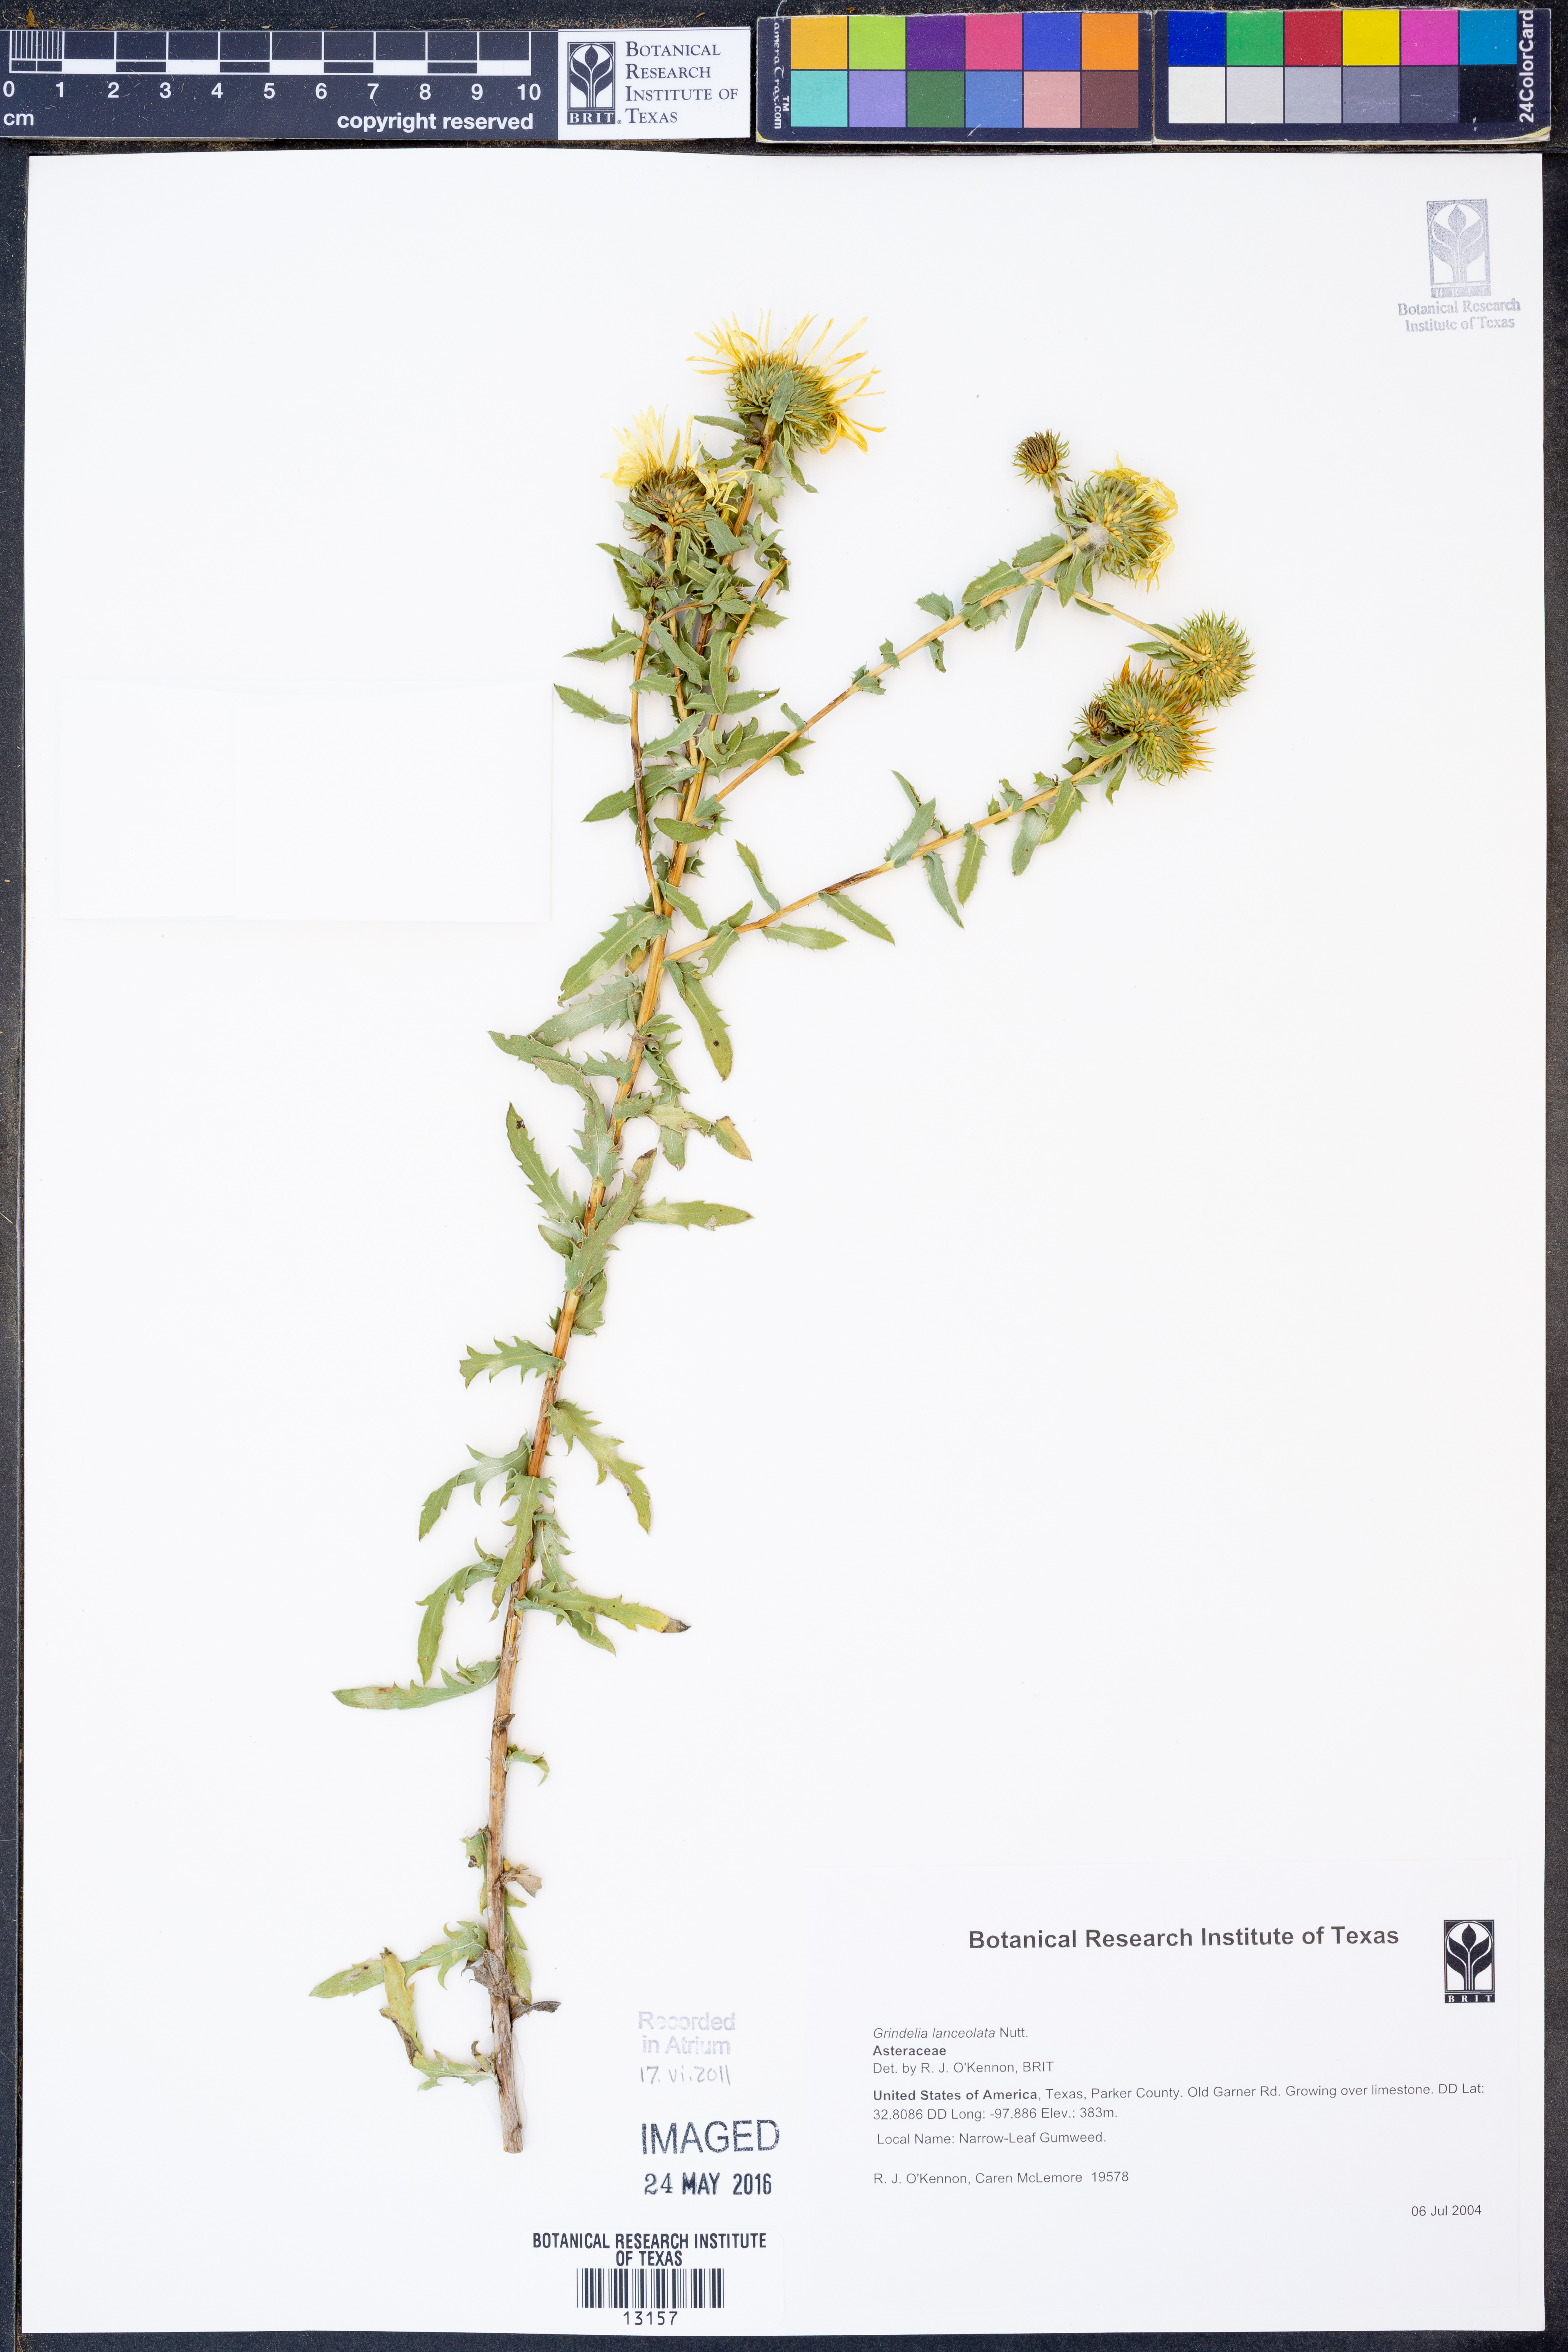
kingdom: Plantae
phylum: Tracheophyta
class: Magnoliopsida
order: Asterales
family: Asteraceae
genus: Grindelia
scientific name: Grindelia lanceolata
